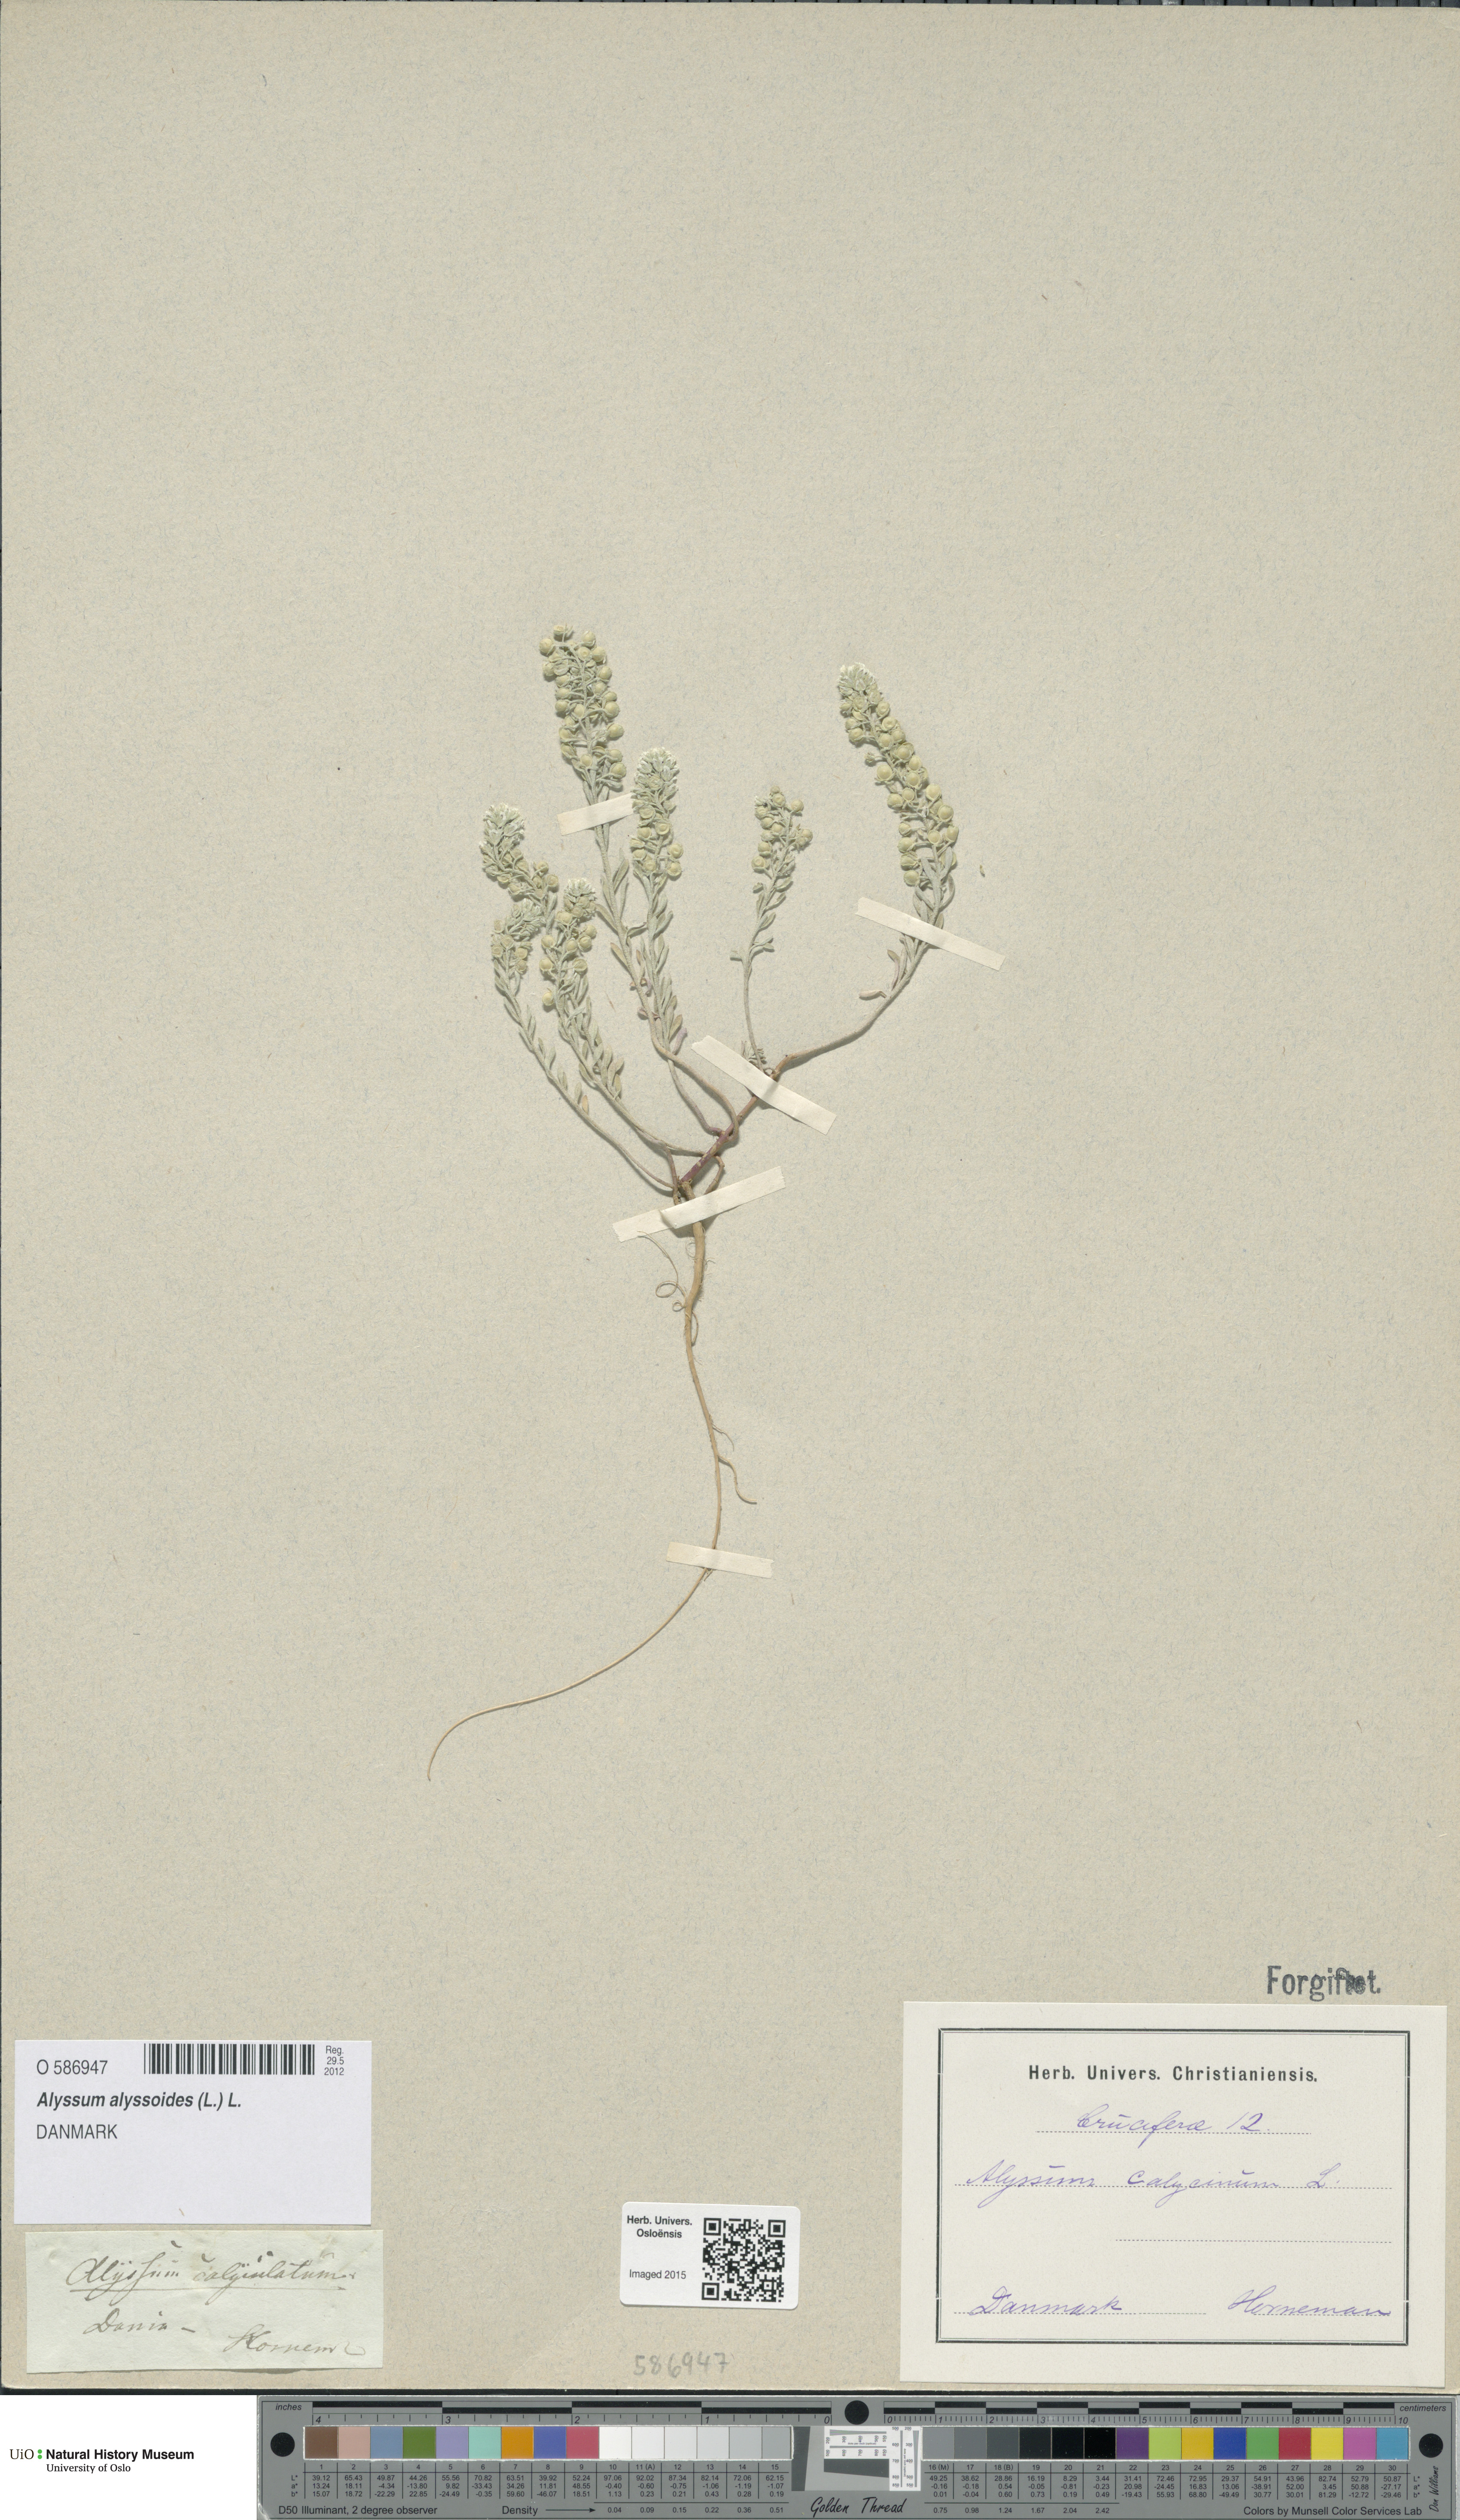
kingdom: Plantae
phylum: Tracheophyta
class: Magnoliopsida
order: Brassicales
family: Brassicaceae
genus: Alyssum
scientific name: Alyssum alyssoides
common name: Small alison
